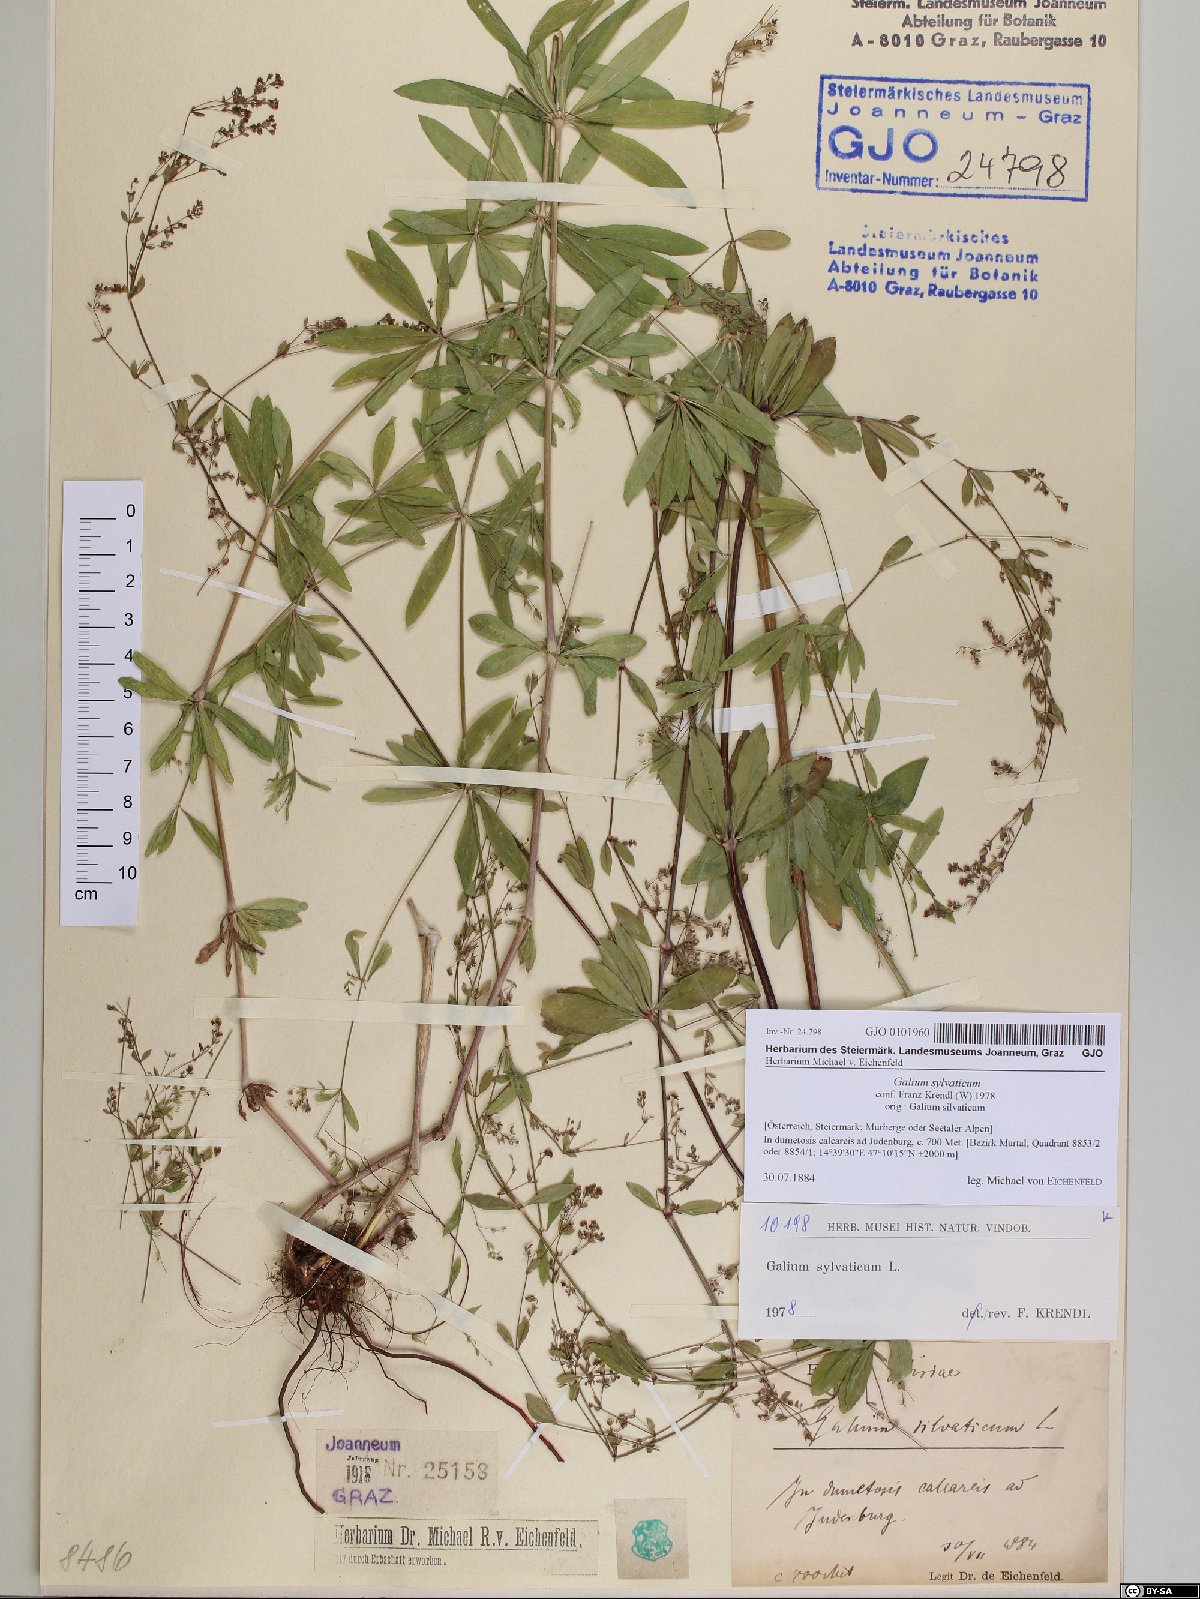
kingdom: Plantae
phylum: Tracheophyta
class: Magnoliopsida
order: Gentianales
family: Rubiaceae
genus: Galium
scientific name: Galium sylvaticum
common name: Wood bedstraw
